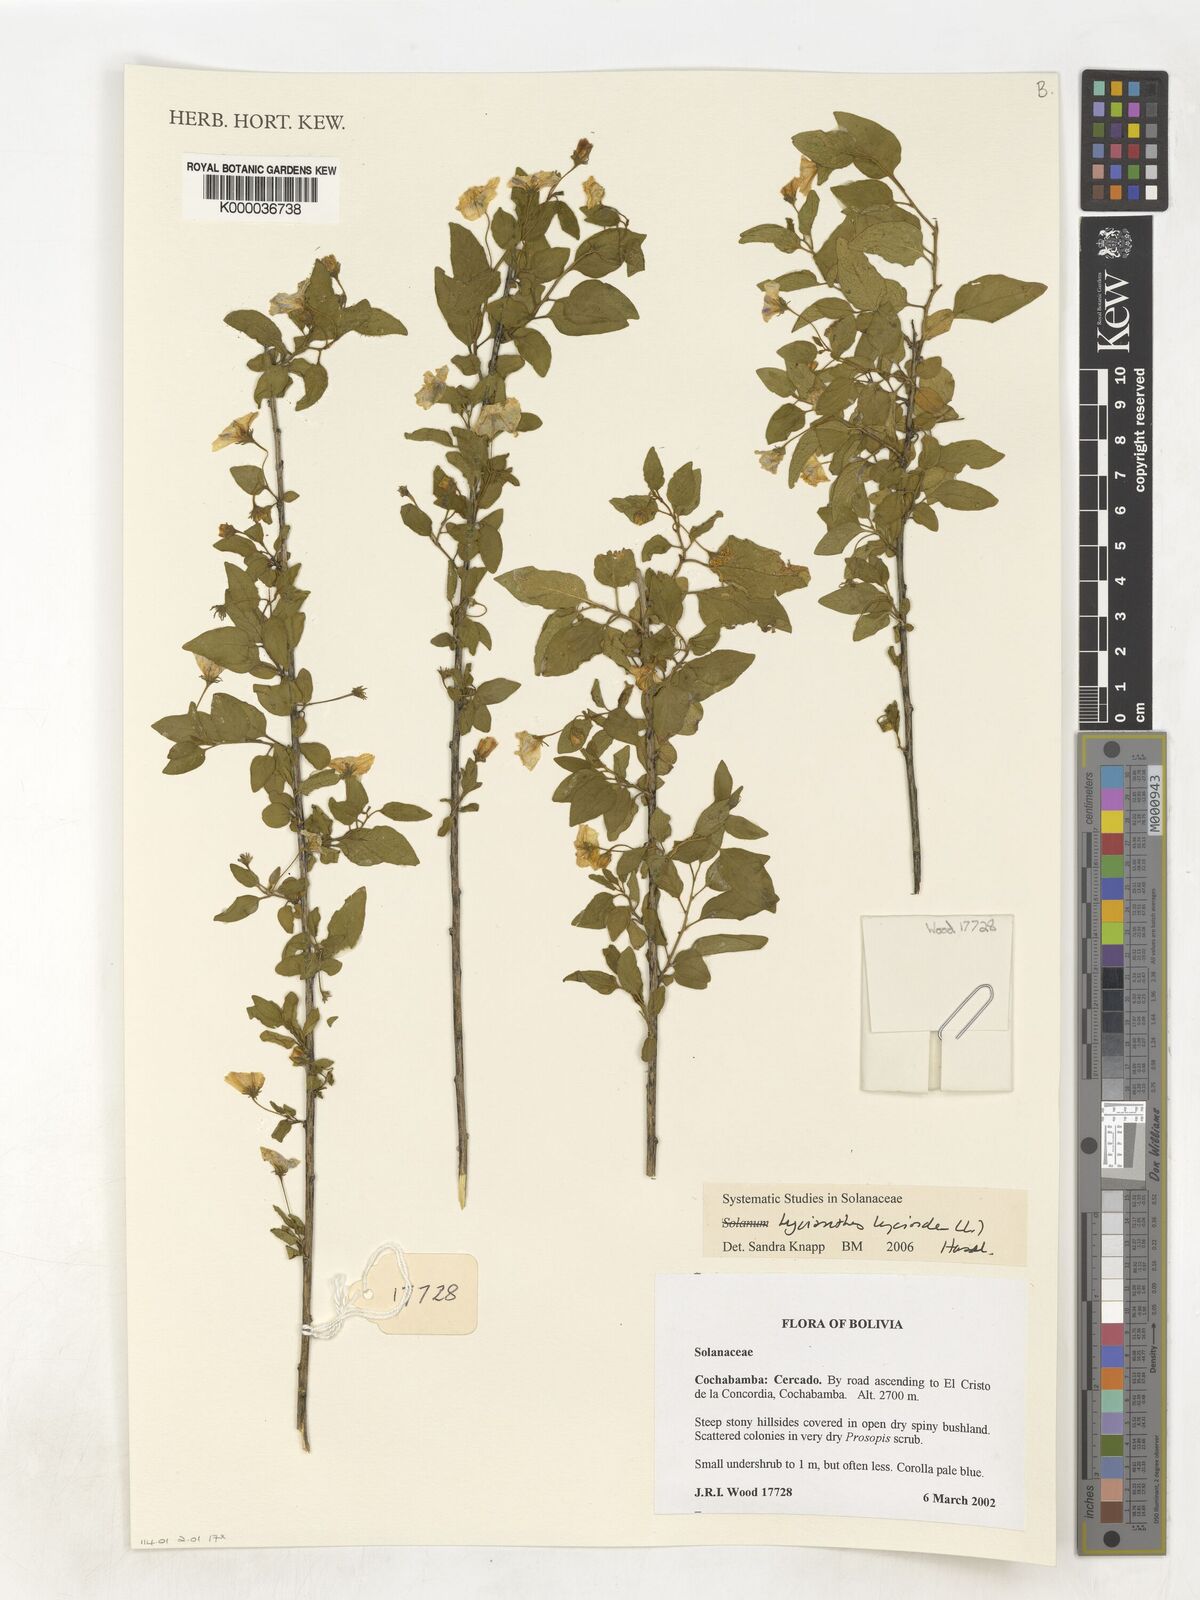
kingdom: Plantae
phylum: Tracheophyta
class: Magnoliopsida
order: Solanales
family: Solanaceae
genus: Lycianthes
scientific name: Lycianthes lycioides
